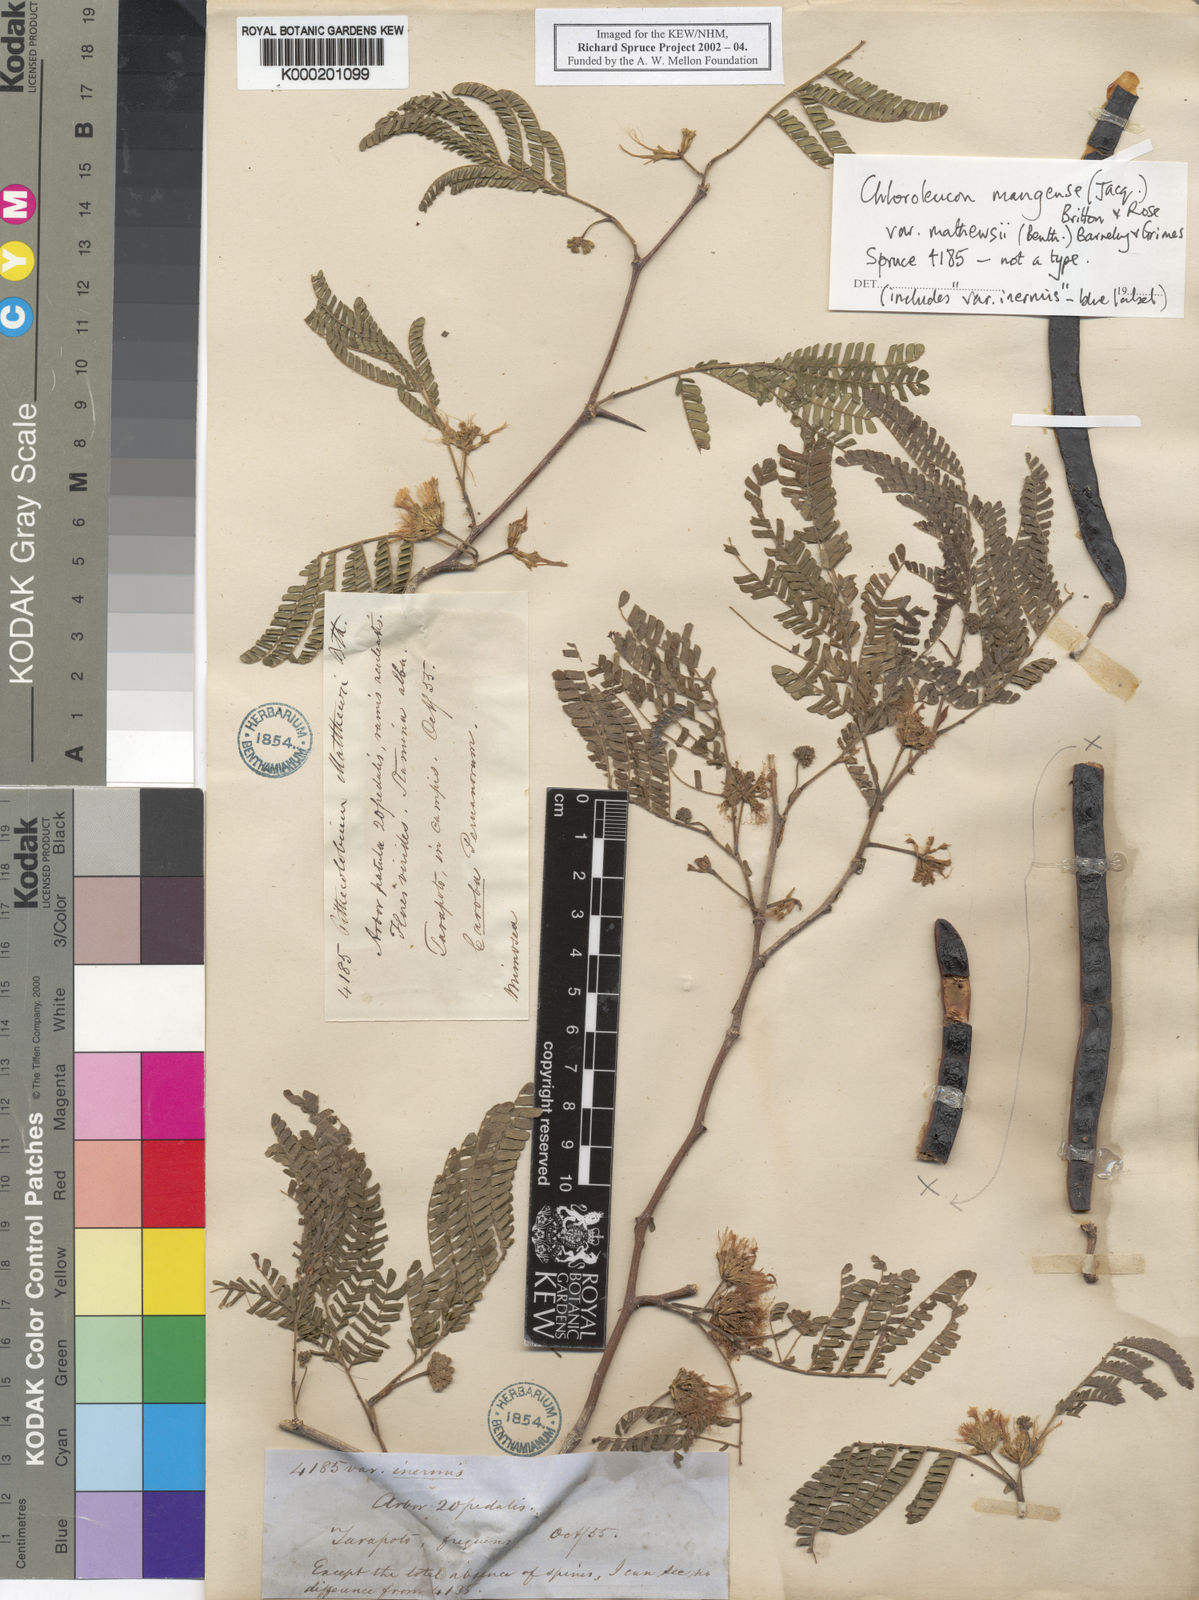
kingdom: Plantae
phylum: Tracheophyta
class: Magnoliopsida
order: Fabales
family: Fabaceae
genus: Chloroleucon
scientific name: Chloroleucon mangense
